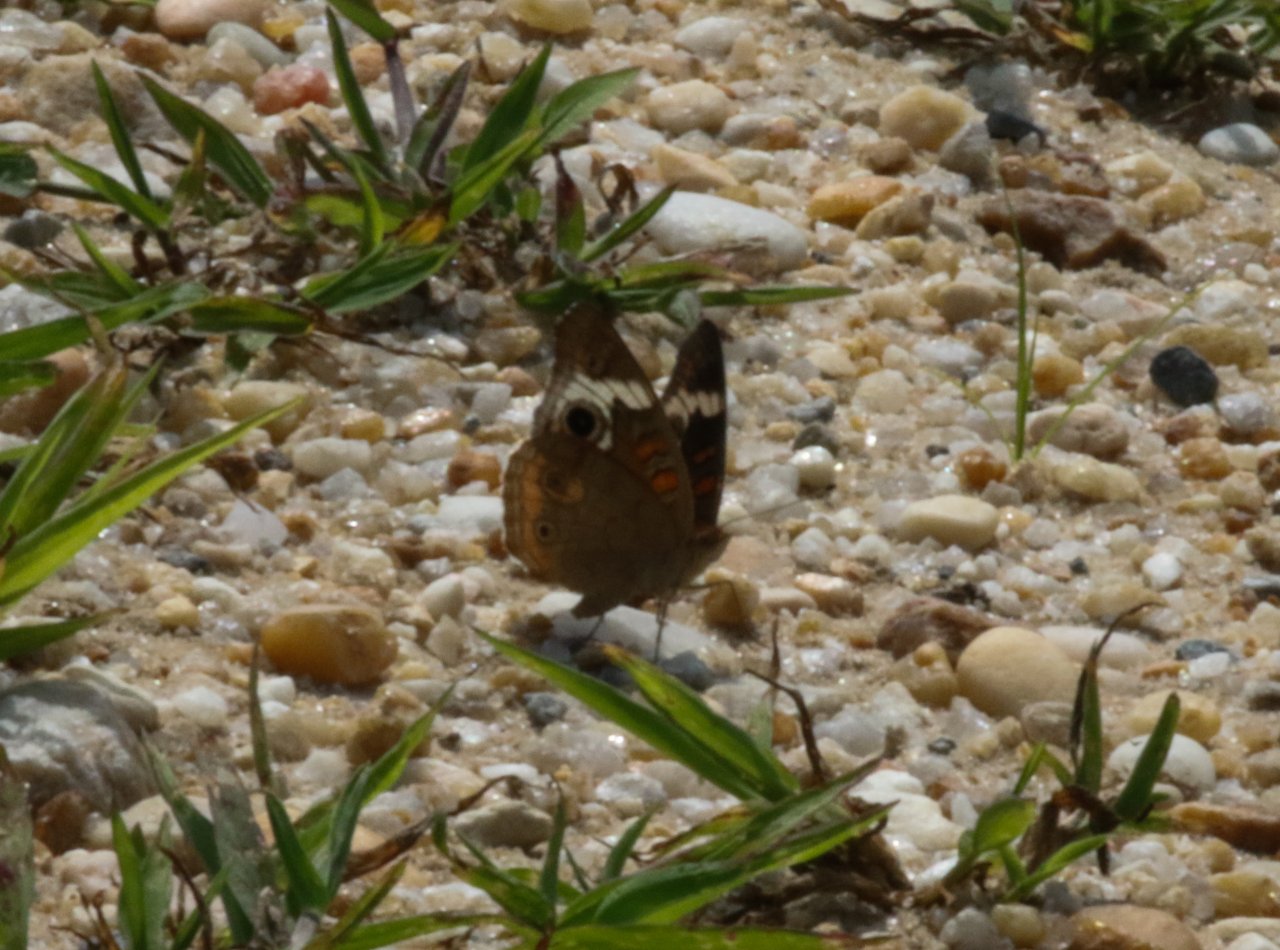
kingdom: Animalia
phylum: Arthropoda
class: Insecta
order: Lepidoptera
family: Nymphalidae
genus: Junonia
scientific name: Junonia coenia
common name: Common Buckeye
